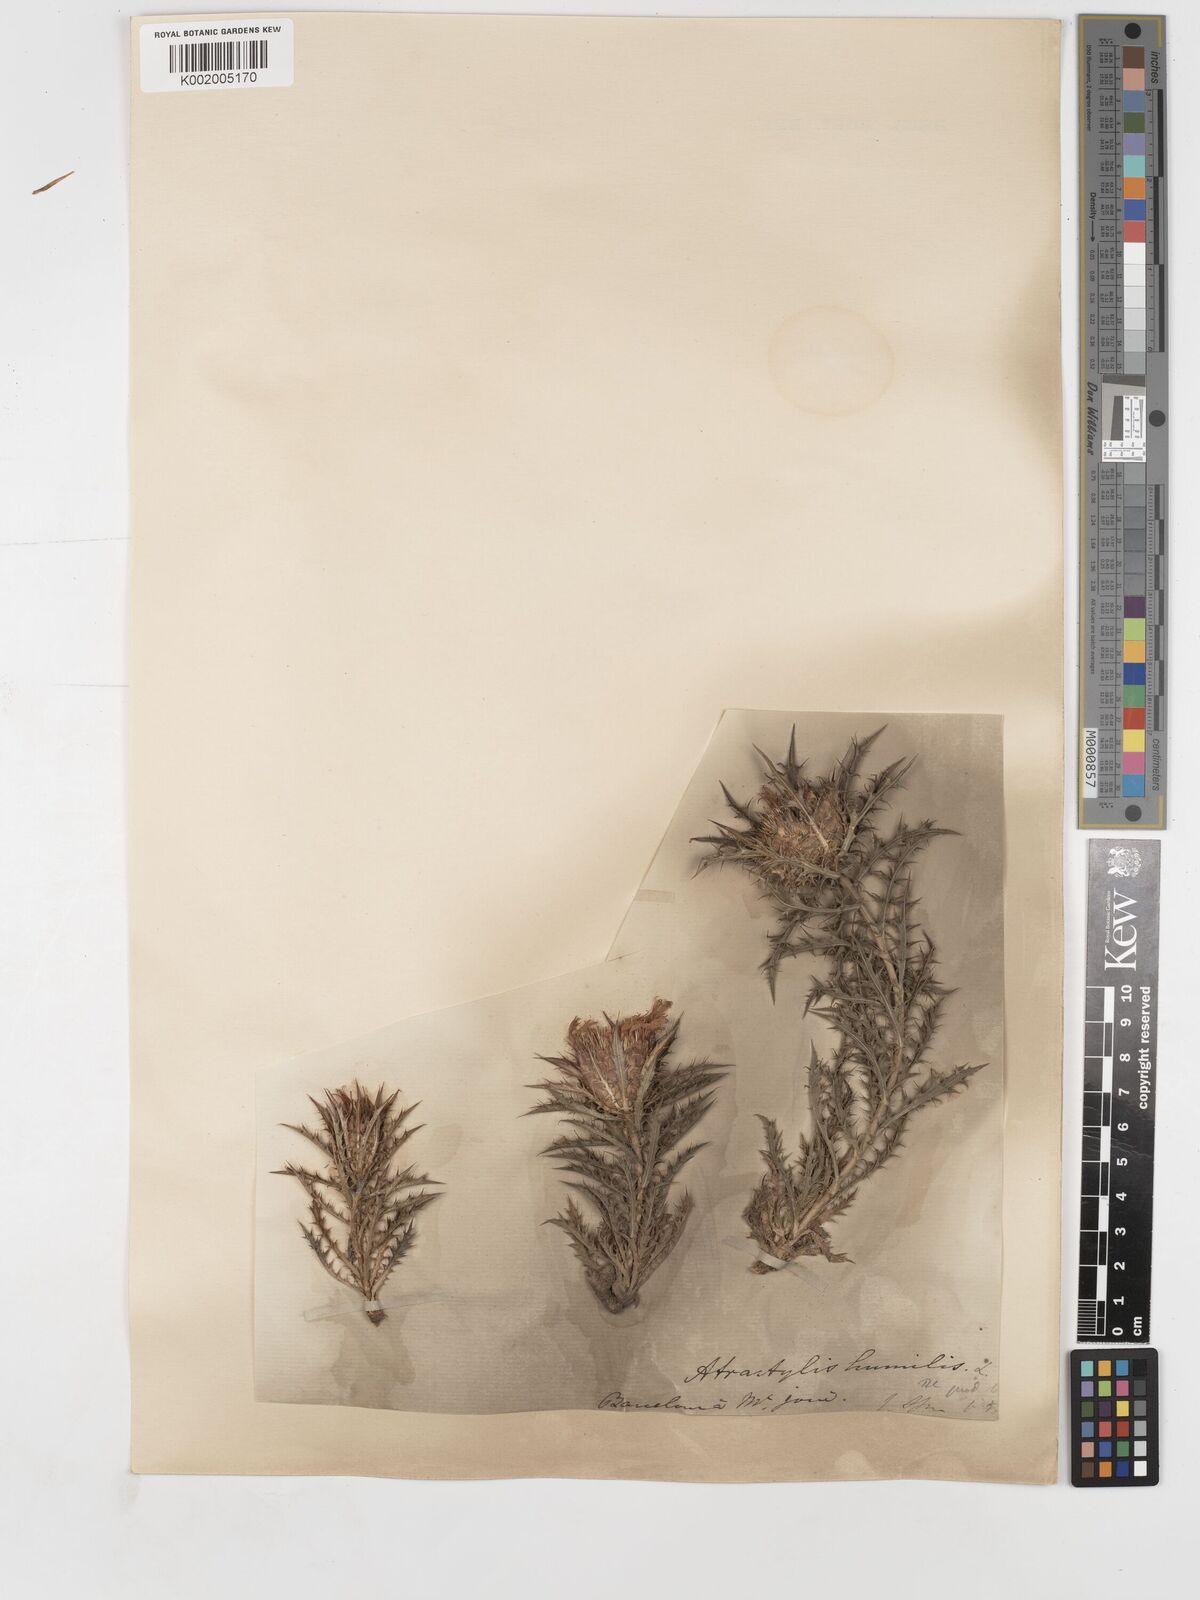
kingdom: Plantae
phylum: Tracheophyta
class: Magnoliopsida
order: Asterales
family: Asteraceae
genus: Atractylis
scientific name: Atractylis humilis
